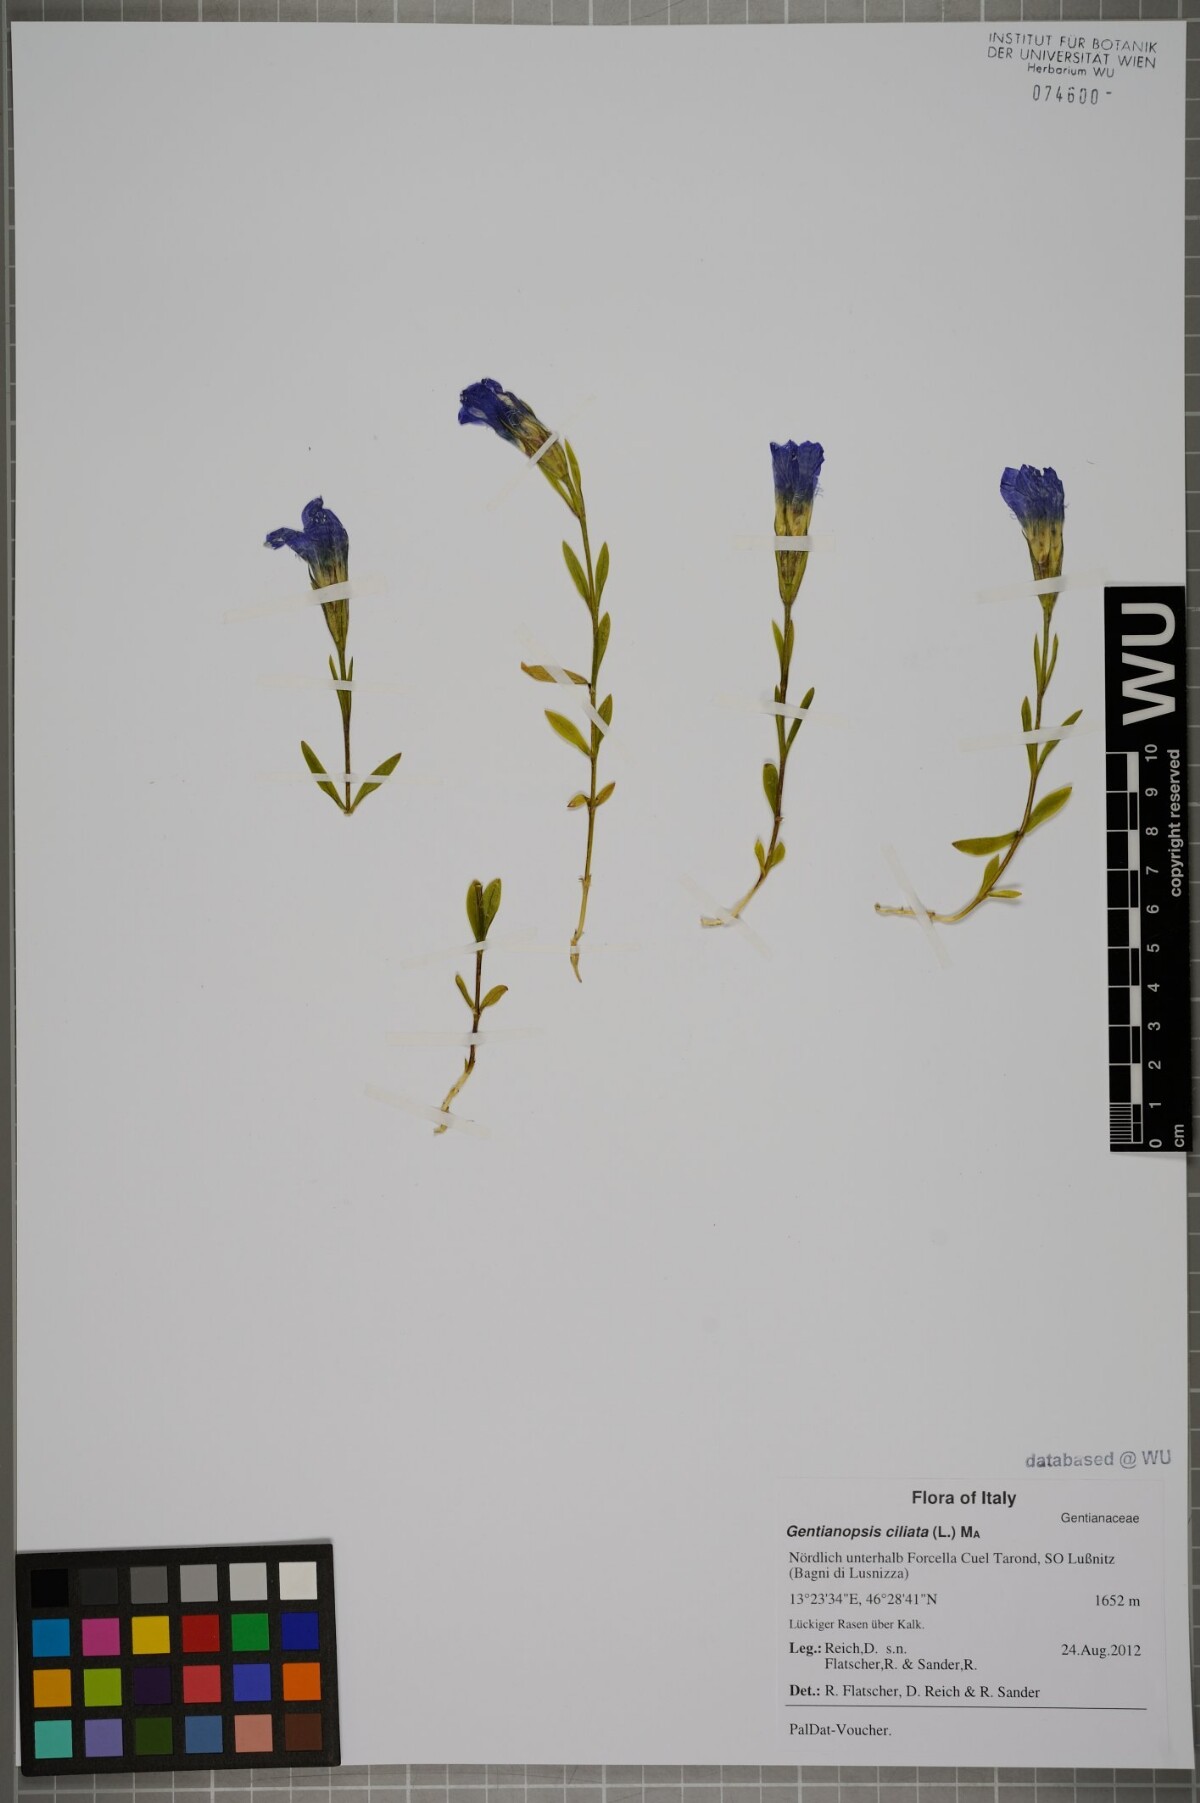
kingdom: Plantae
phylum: Tracheophyta
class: Magnoliopsida
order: Gentianales
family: Gentianaceae
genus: Gentianopsis
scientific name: Gentianopsis ciliata
